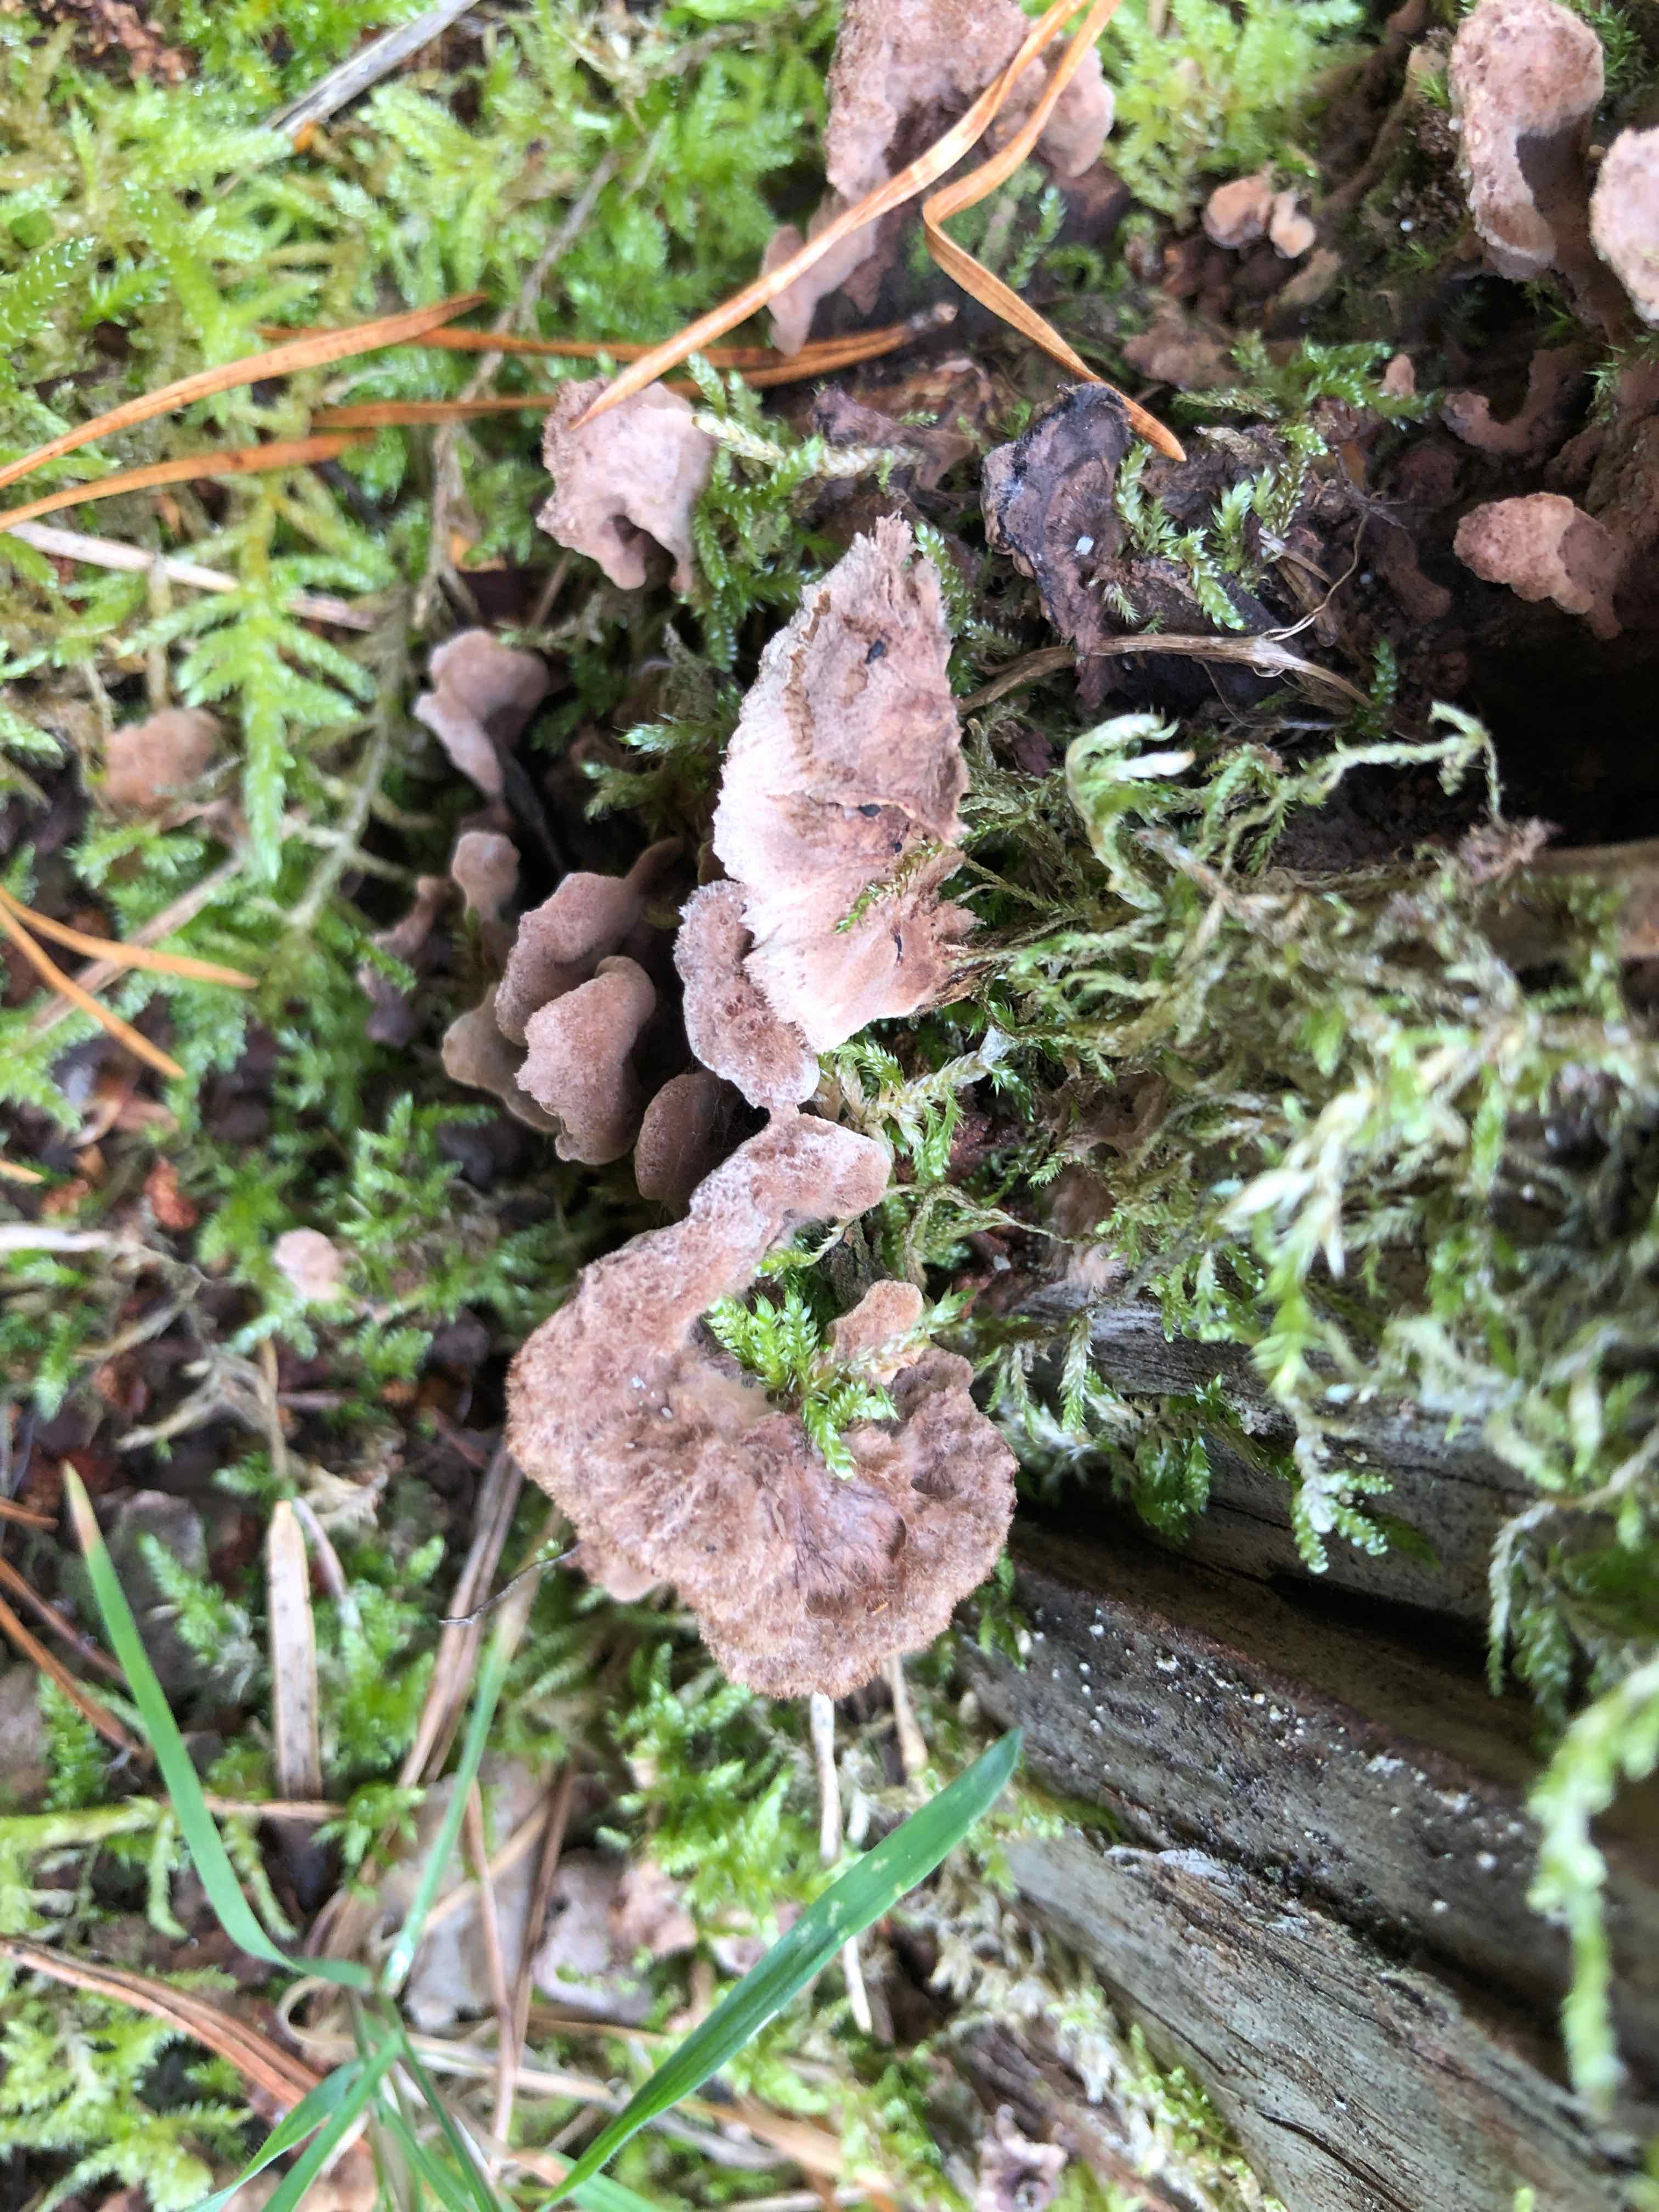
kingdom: Fungi
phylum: Basidiomycota
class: Agaricomycetes
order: Thelephorales
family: Thelephoraceae
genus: Thelephora
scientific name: Thelephora terrestris
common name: fliget frynsesvamp
